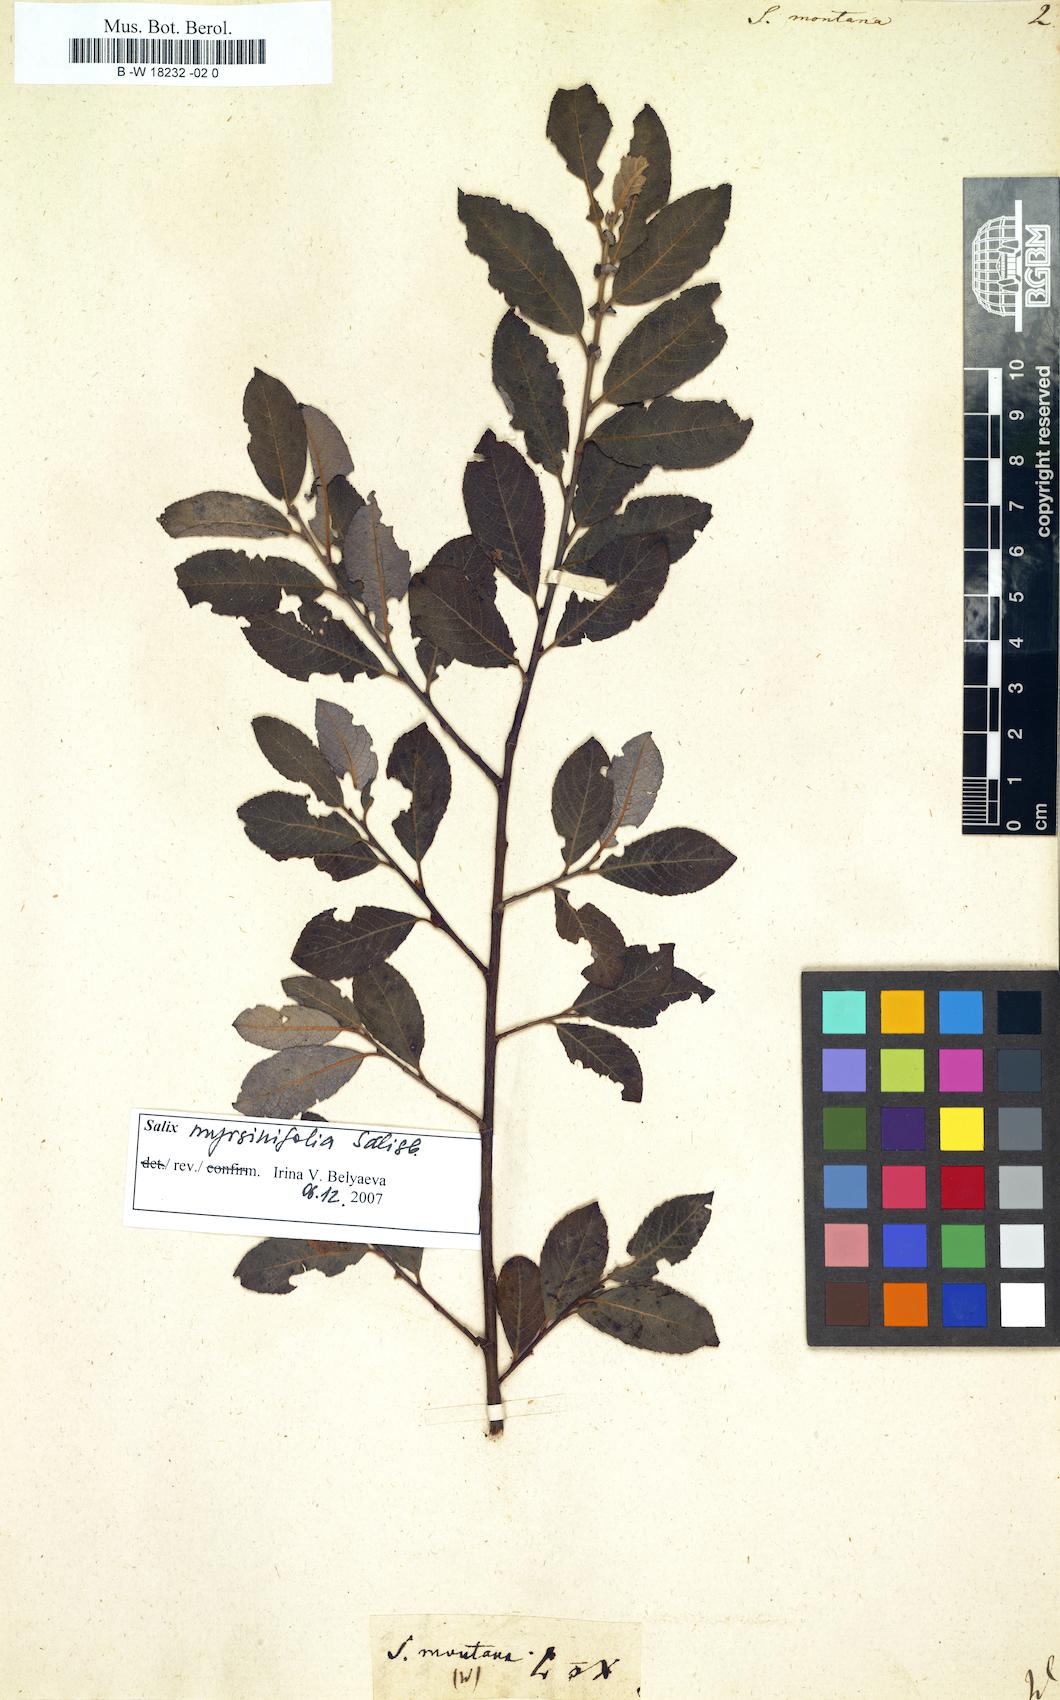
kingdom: Plantae
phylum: Tracheophyta
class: Magnoliopsida
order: Malpighiales
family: Salicaceae
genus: Salix
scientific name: Salix montana
